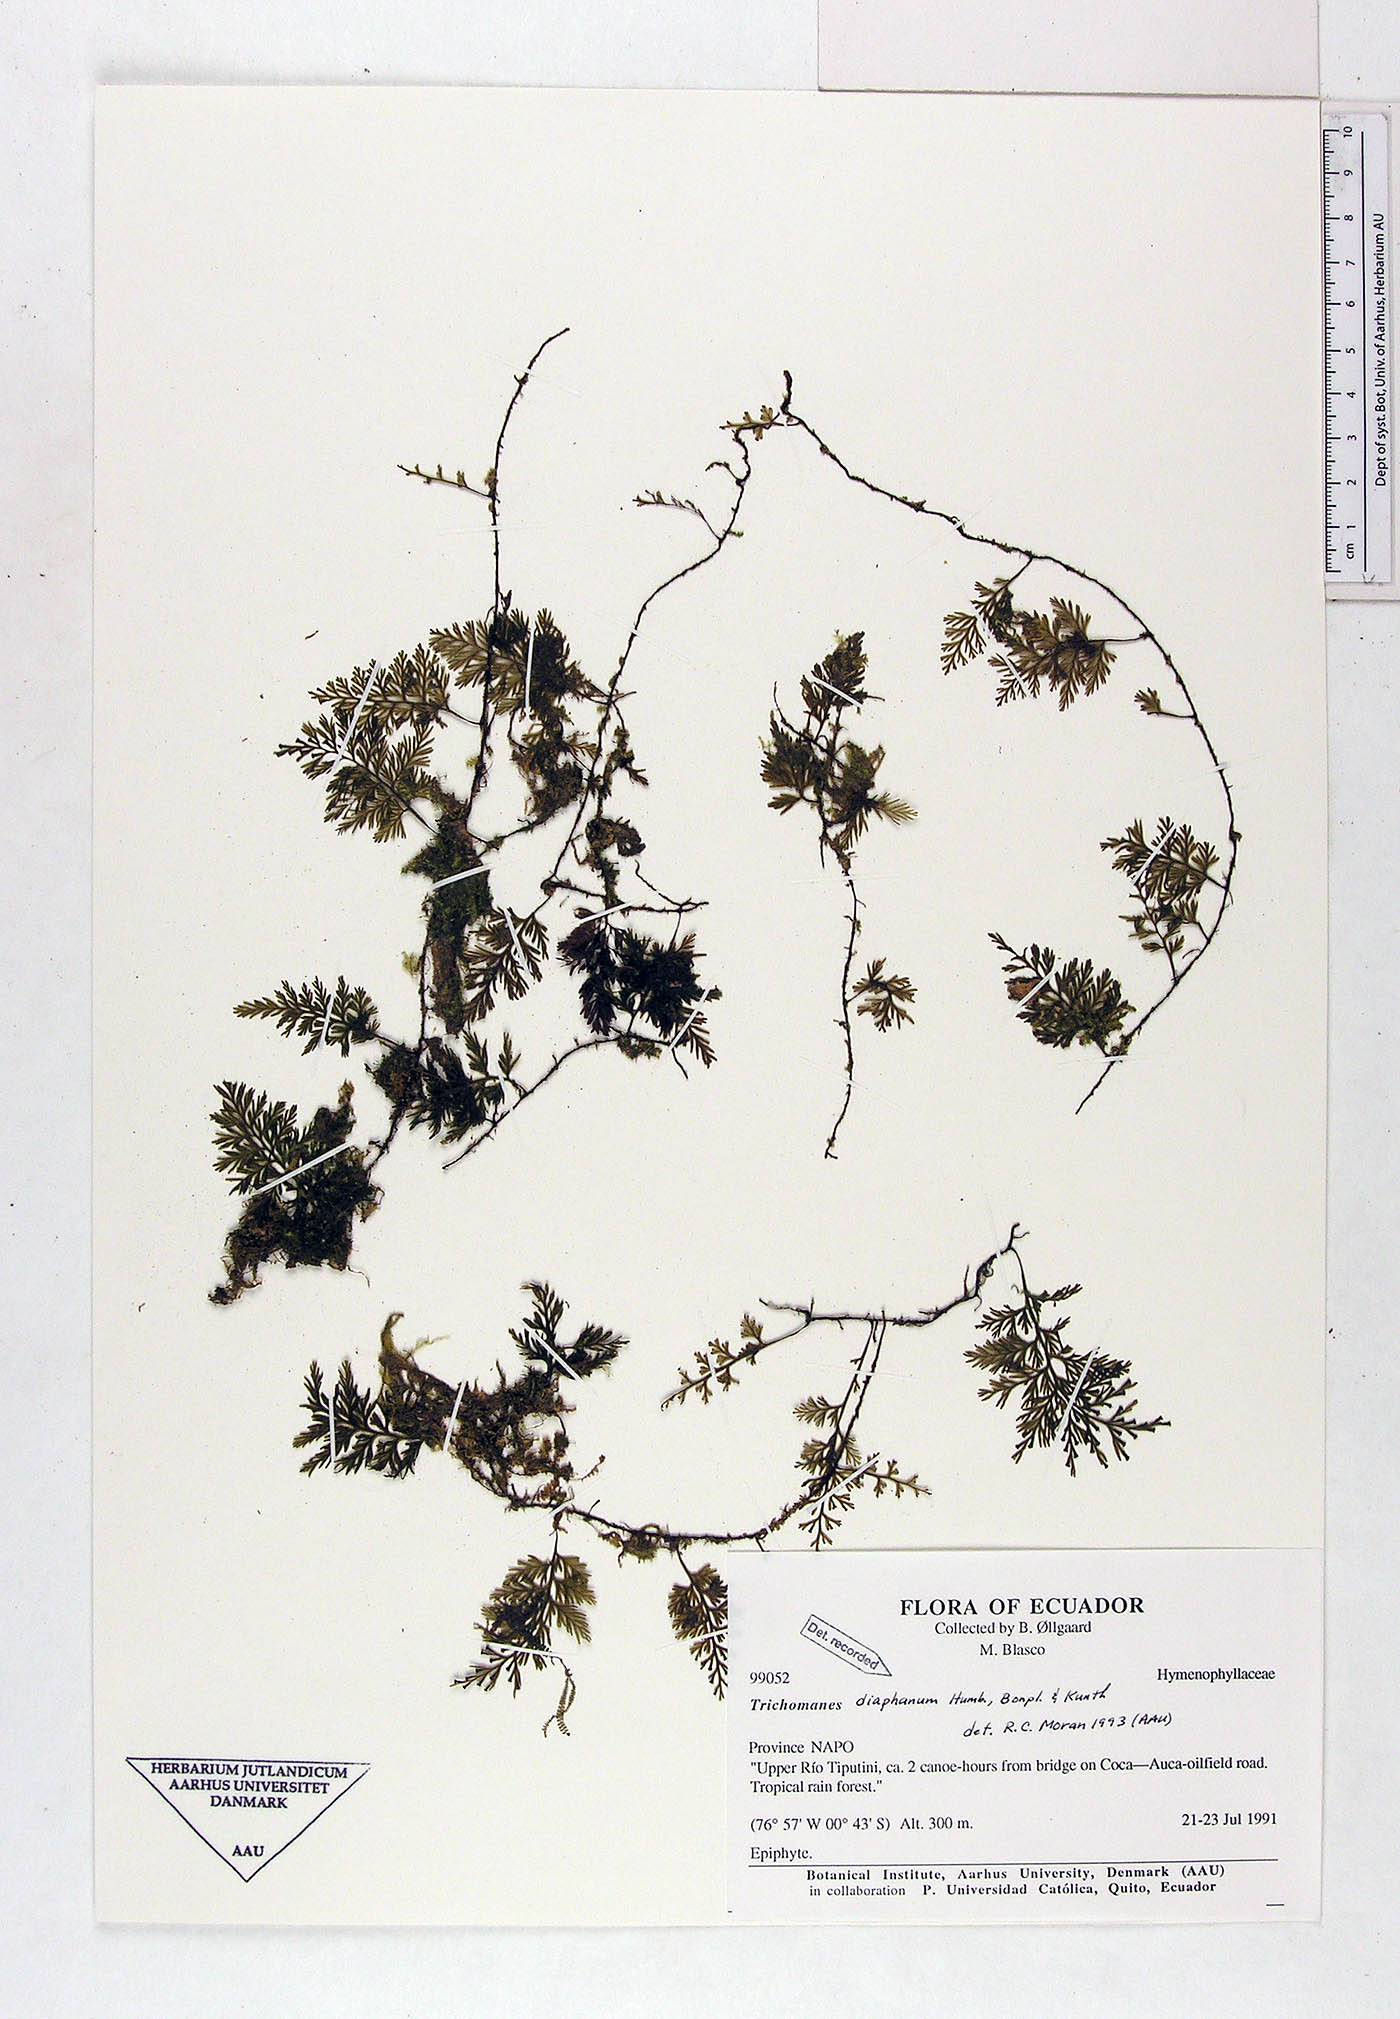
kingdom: Plantae
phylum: Tracheophyta
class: Polypodiopsida
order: Hymenophyllales
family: Hymenophyllaceae
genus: Polyphlebium
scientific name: Polyphlebium diaphanum
